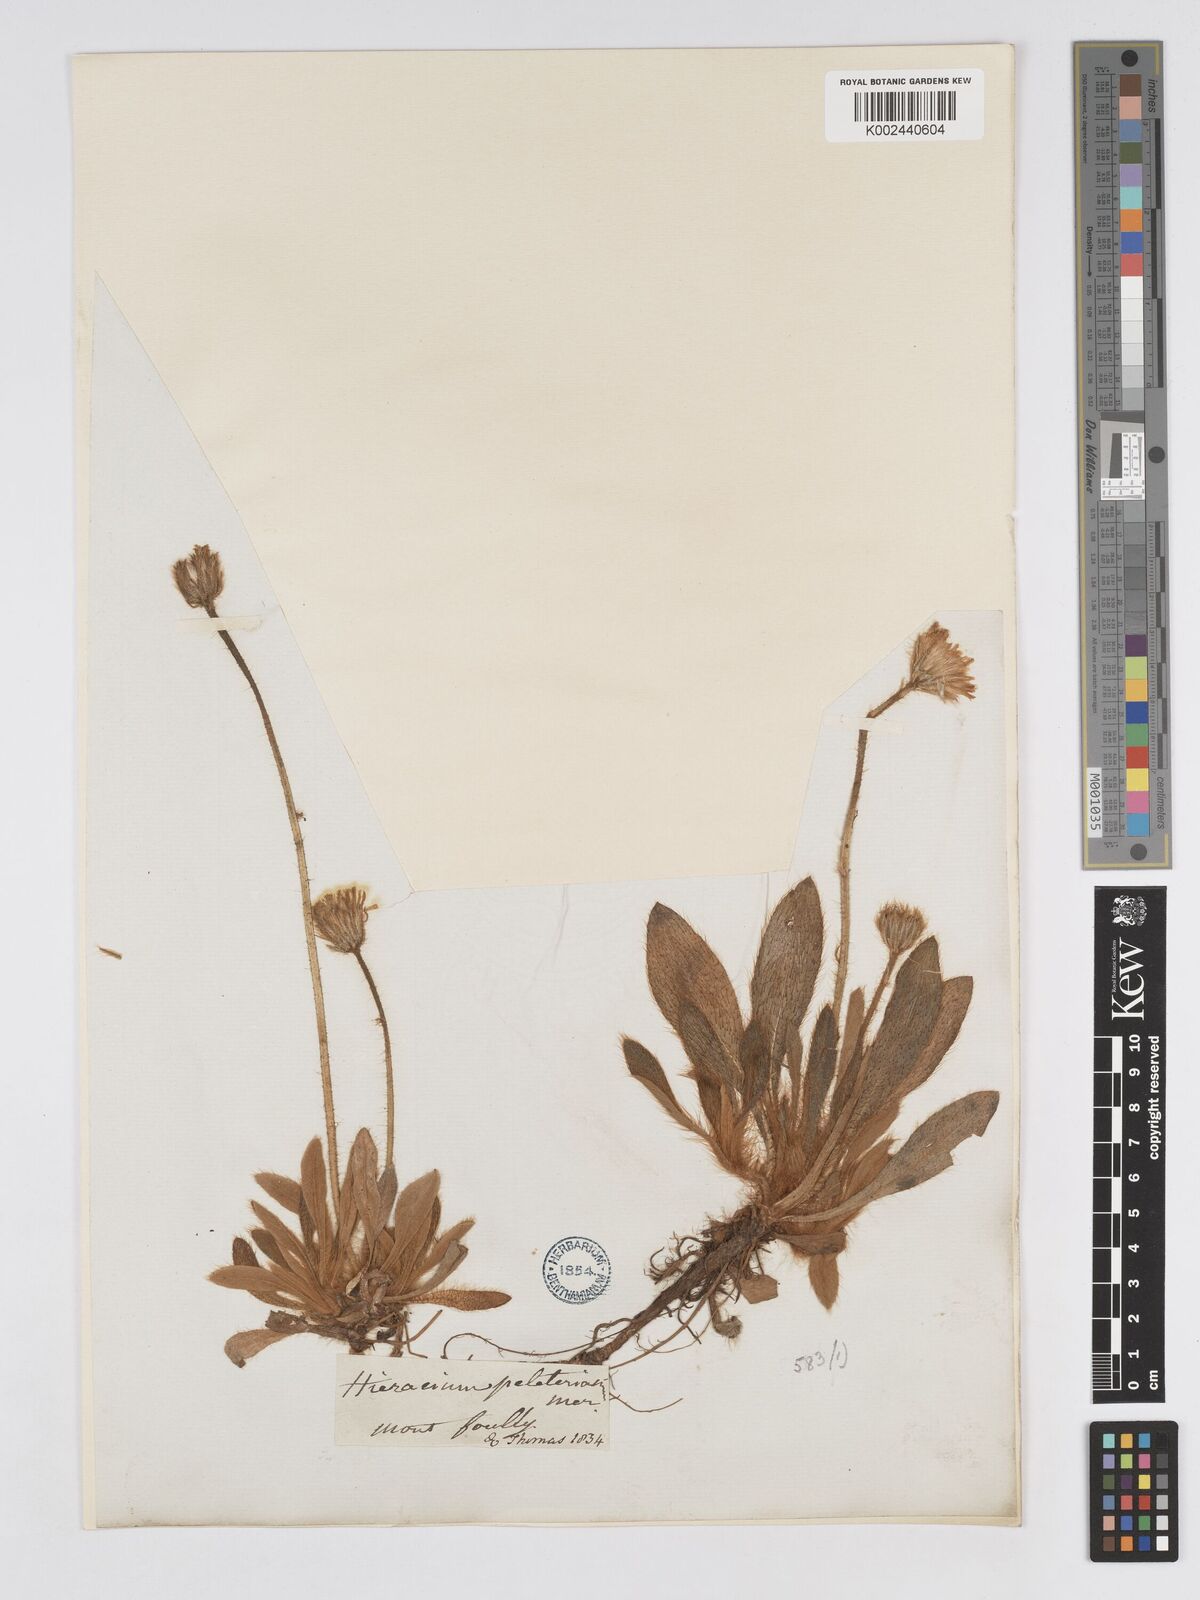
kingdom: Plantae
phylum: Tracheophyta
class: Magnoliopsida
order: Asterales
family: Asteraceae
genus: Pilosella
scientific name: Pilosella periphanoides
